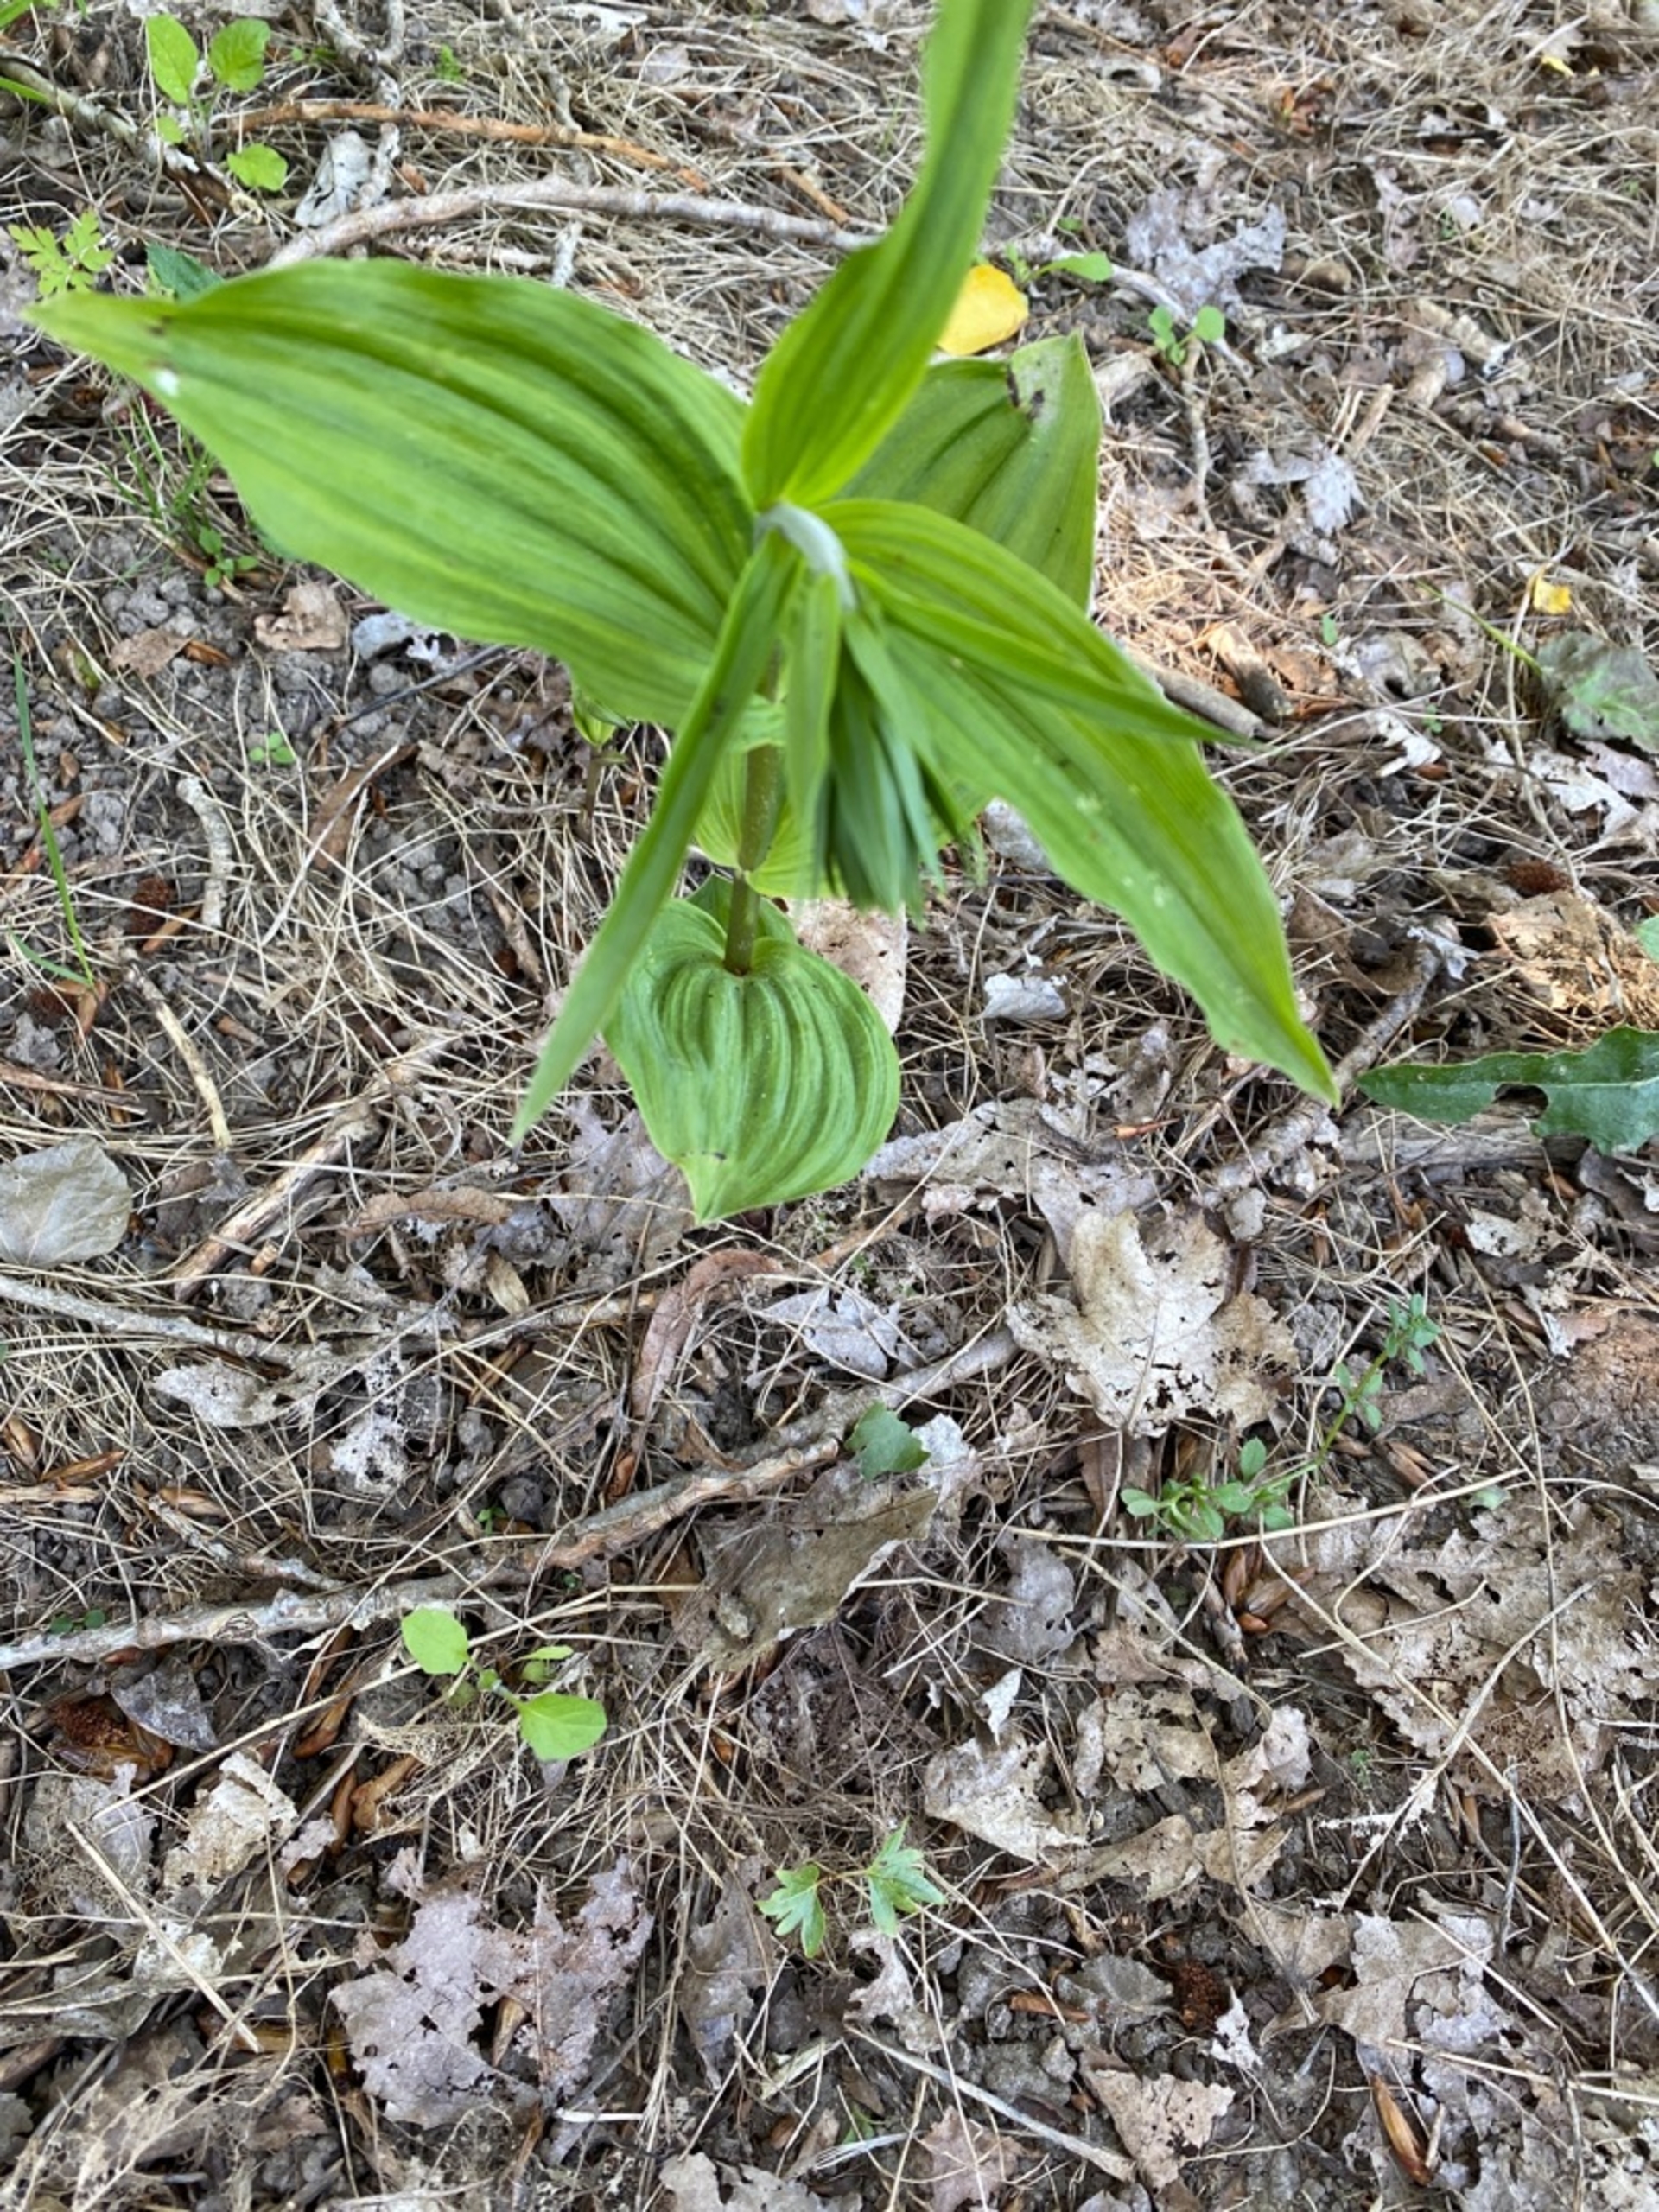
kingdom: Plantae
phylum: Tracheophyta
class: Liliopsida
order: Asparagales
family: Orchidaceae
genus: Epipactis
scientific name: Epipactis helleborine
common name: Skov-hullæbe
